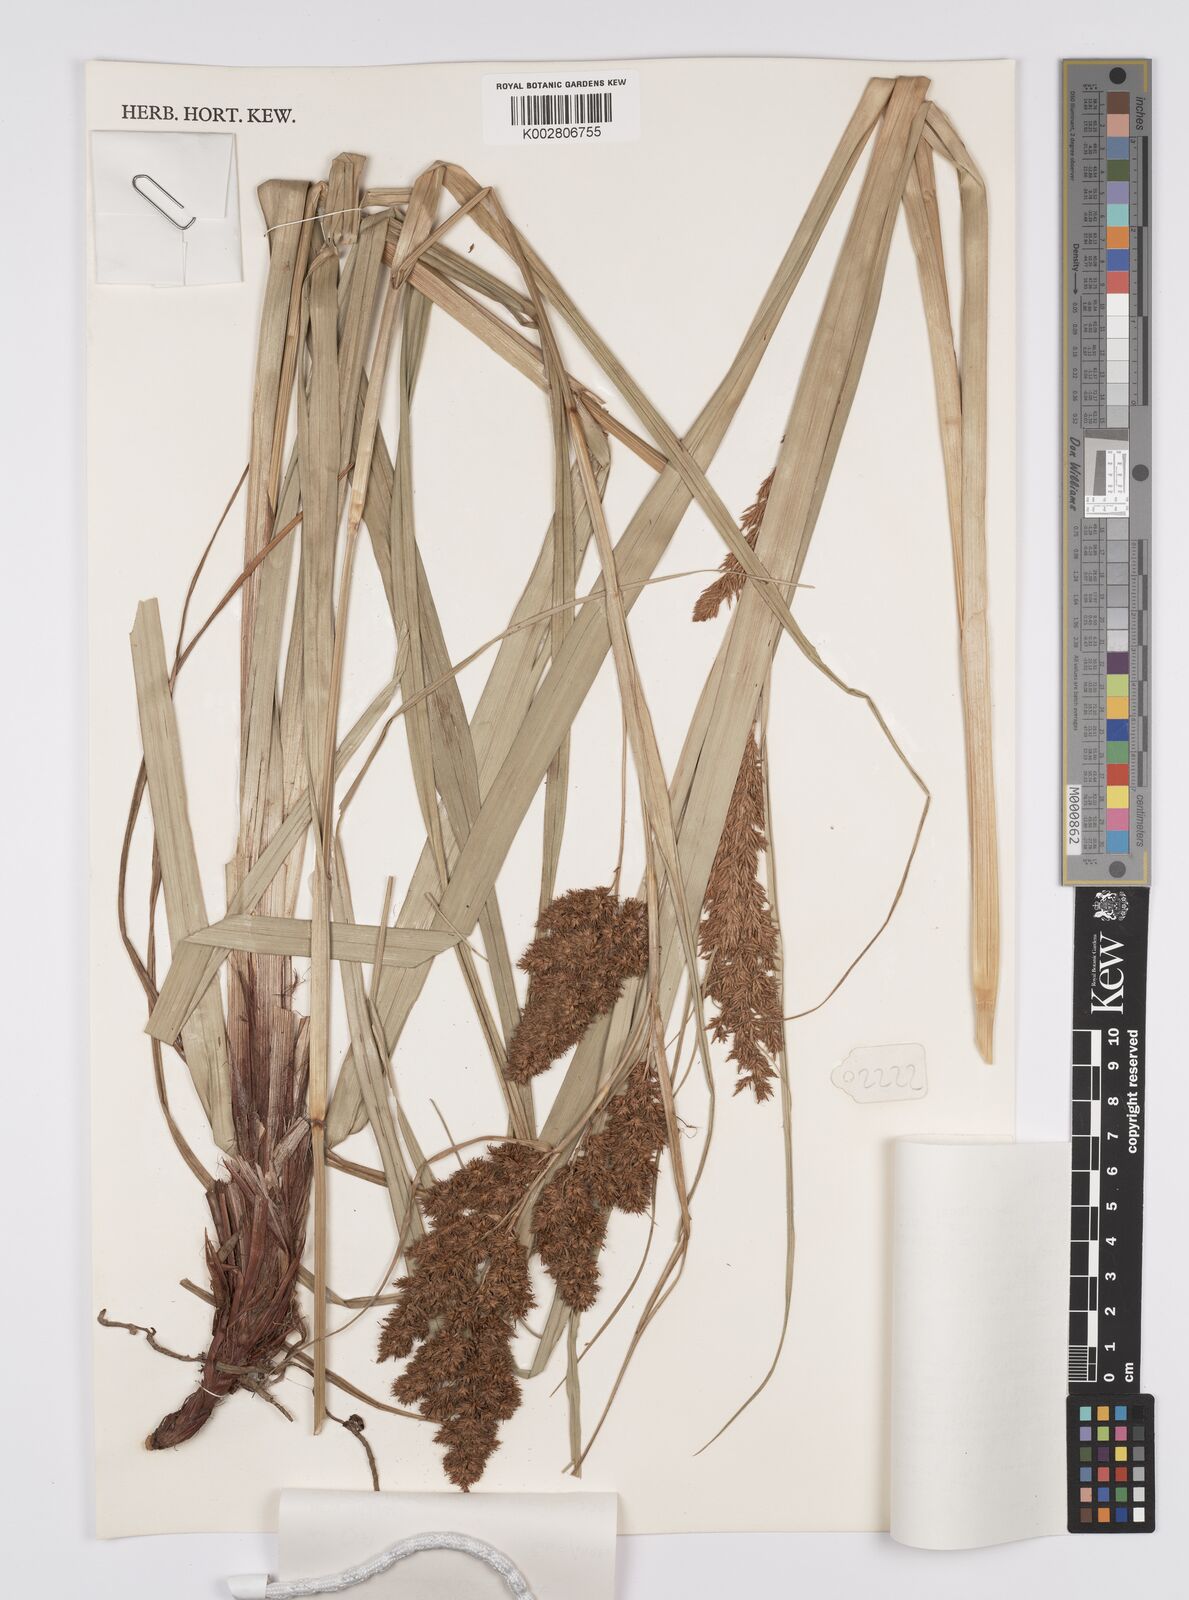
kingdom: Plantae
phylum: Tracheophyta
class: Liliopsida
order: Poales
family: Cyperaceae
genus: Carex
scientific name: Carex rafflesiana
